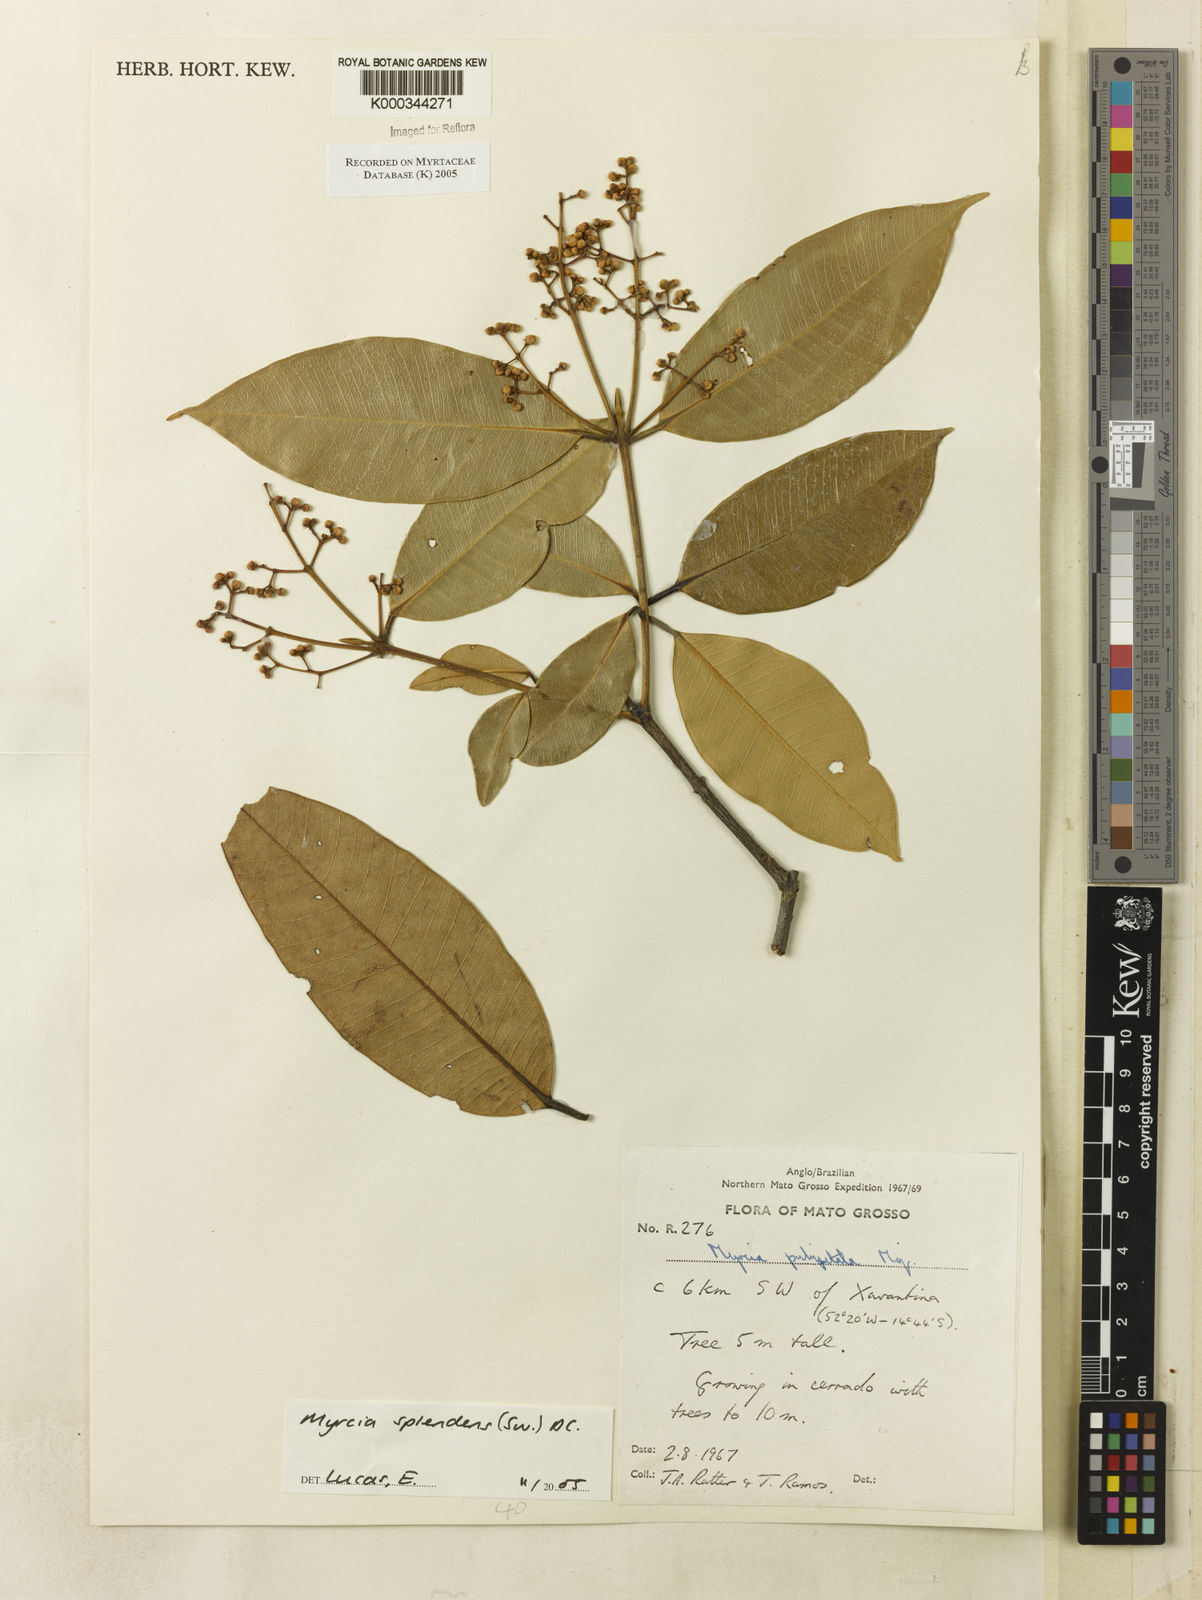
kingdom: Plantae
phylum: Tracheophyta
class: Magnoliopsida
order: Myrtales
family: Myrtaceae
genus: Myrcia
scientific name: Myrcia splendens
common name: Surinam cherry
